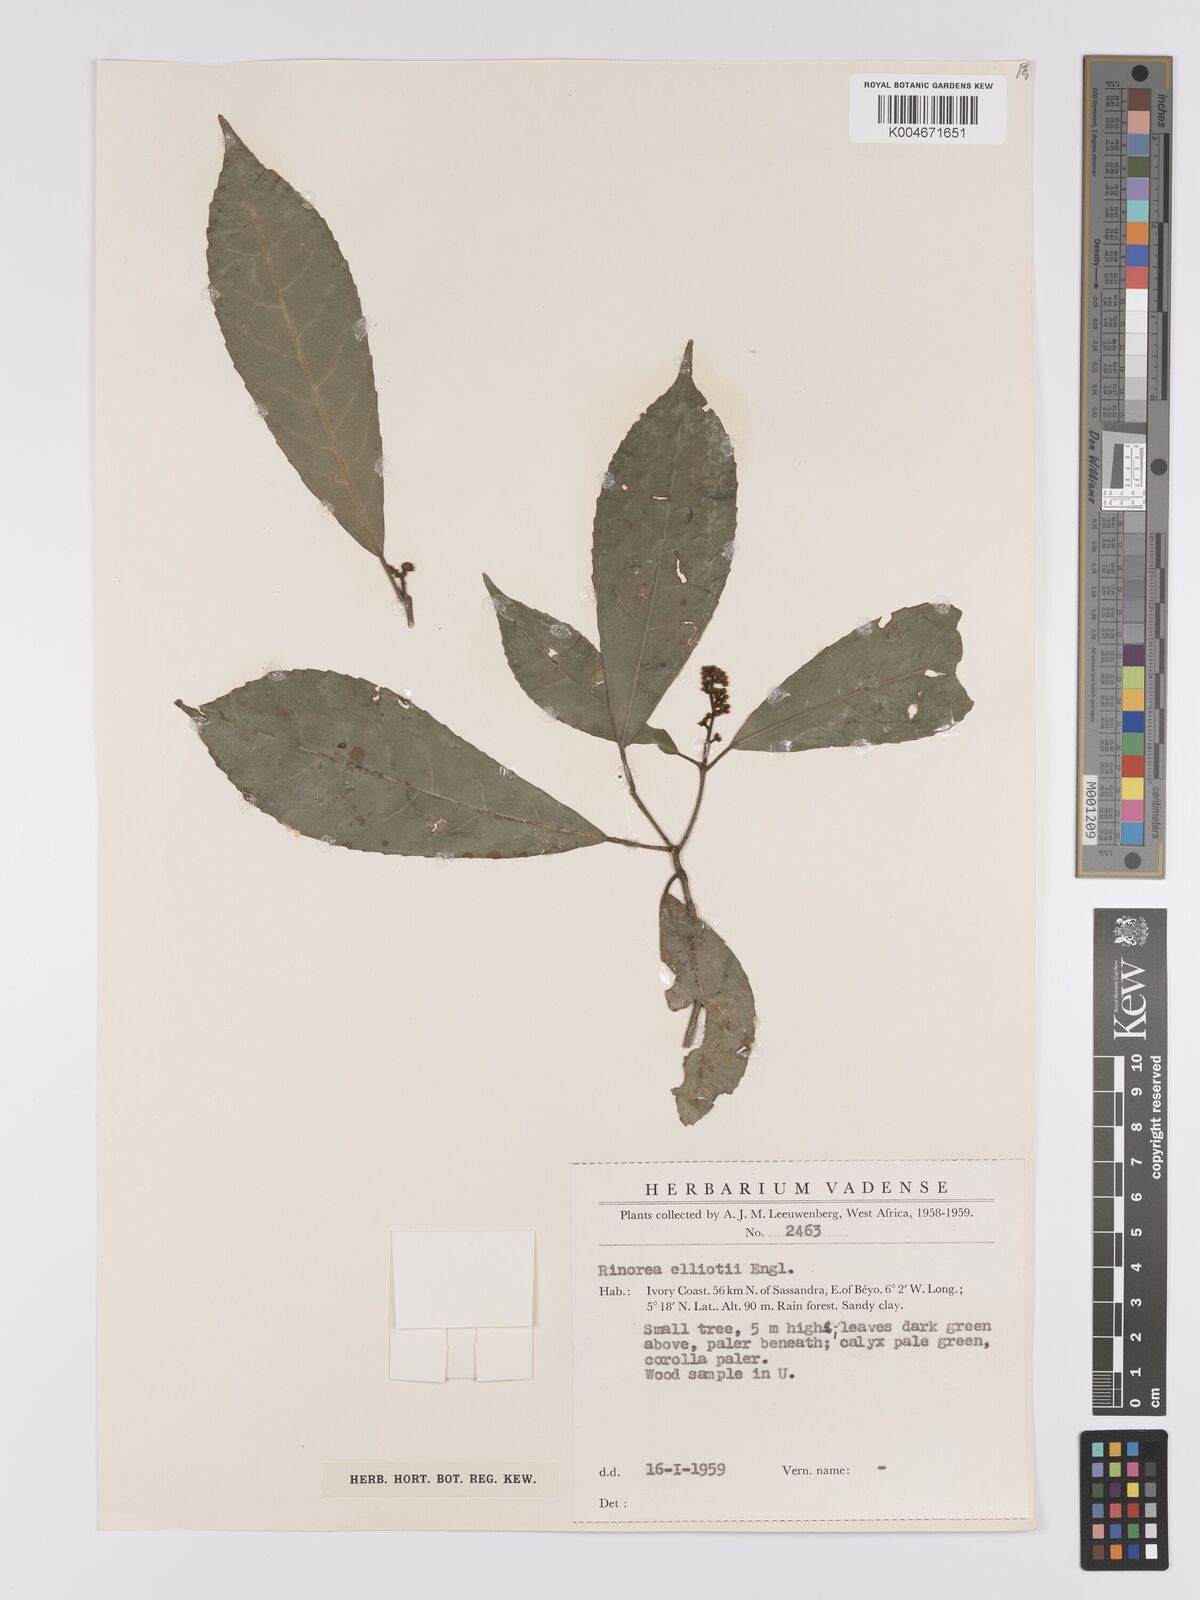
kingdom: Plantae
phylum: Tracheophyta
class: Magnoliopsida
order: Malpighiales
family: Violaceae
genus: Rinorea
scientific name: Rinorea welwitschii
